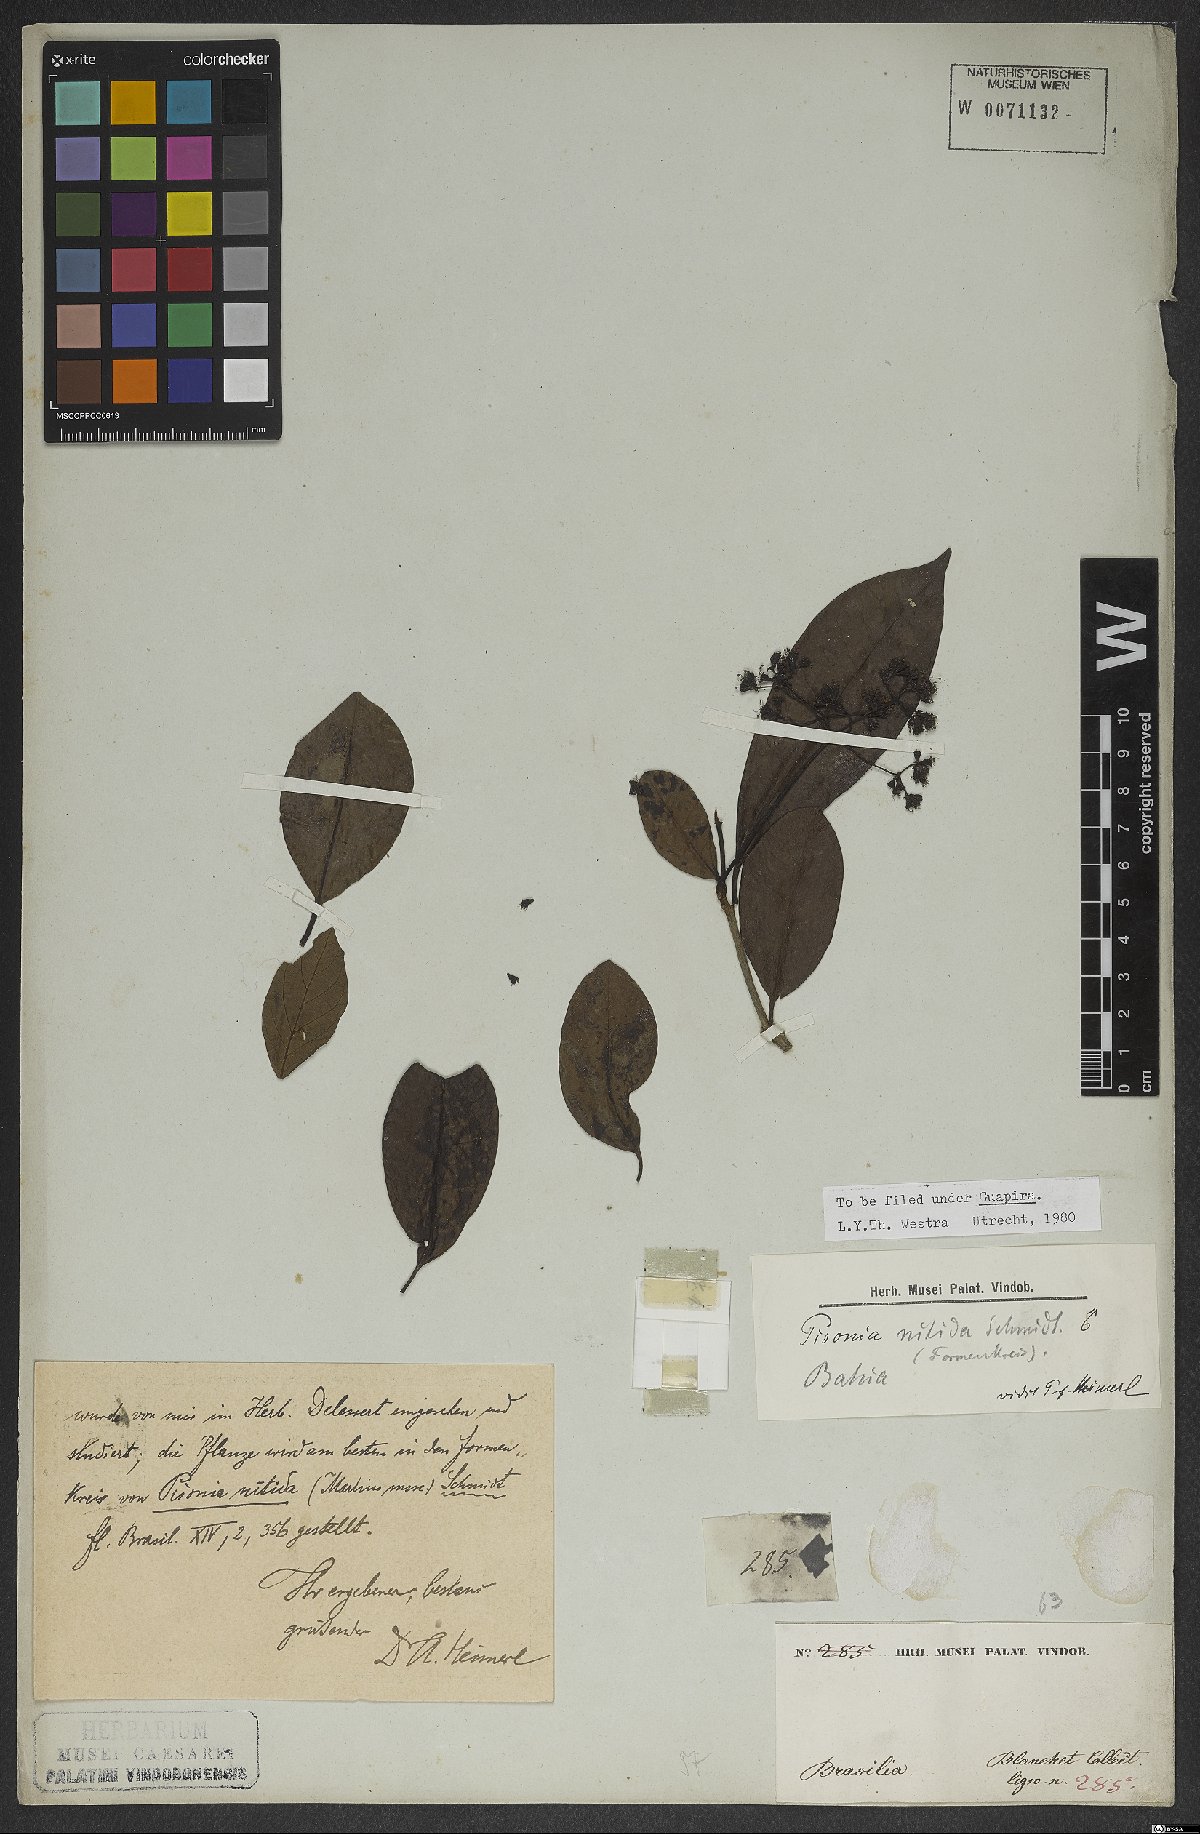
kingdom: Plantae
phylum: Tracheophyta
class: Magnoliopsida
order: Caryophyllales
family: Nyctaginaceae
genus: Guapira
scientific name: Guapira nitida
